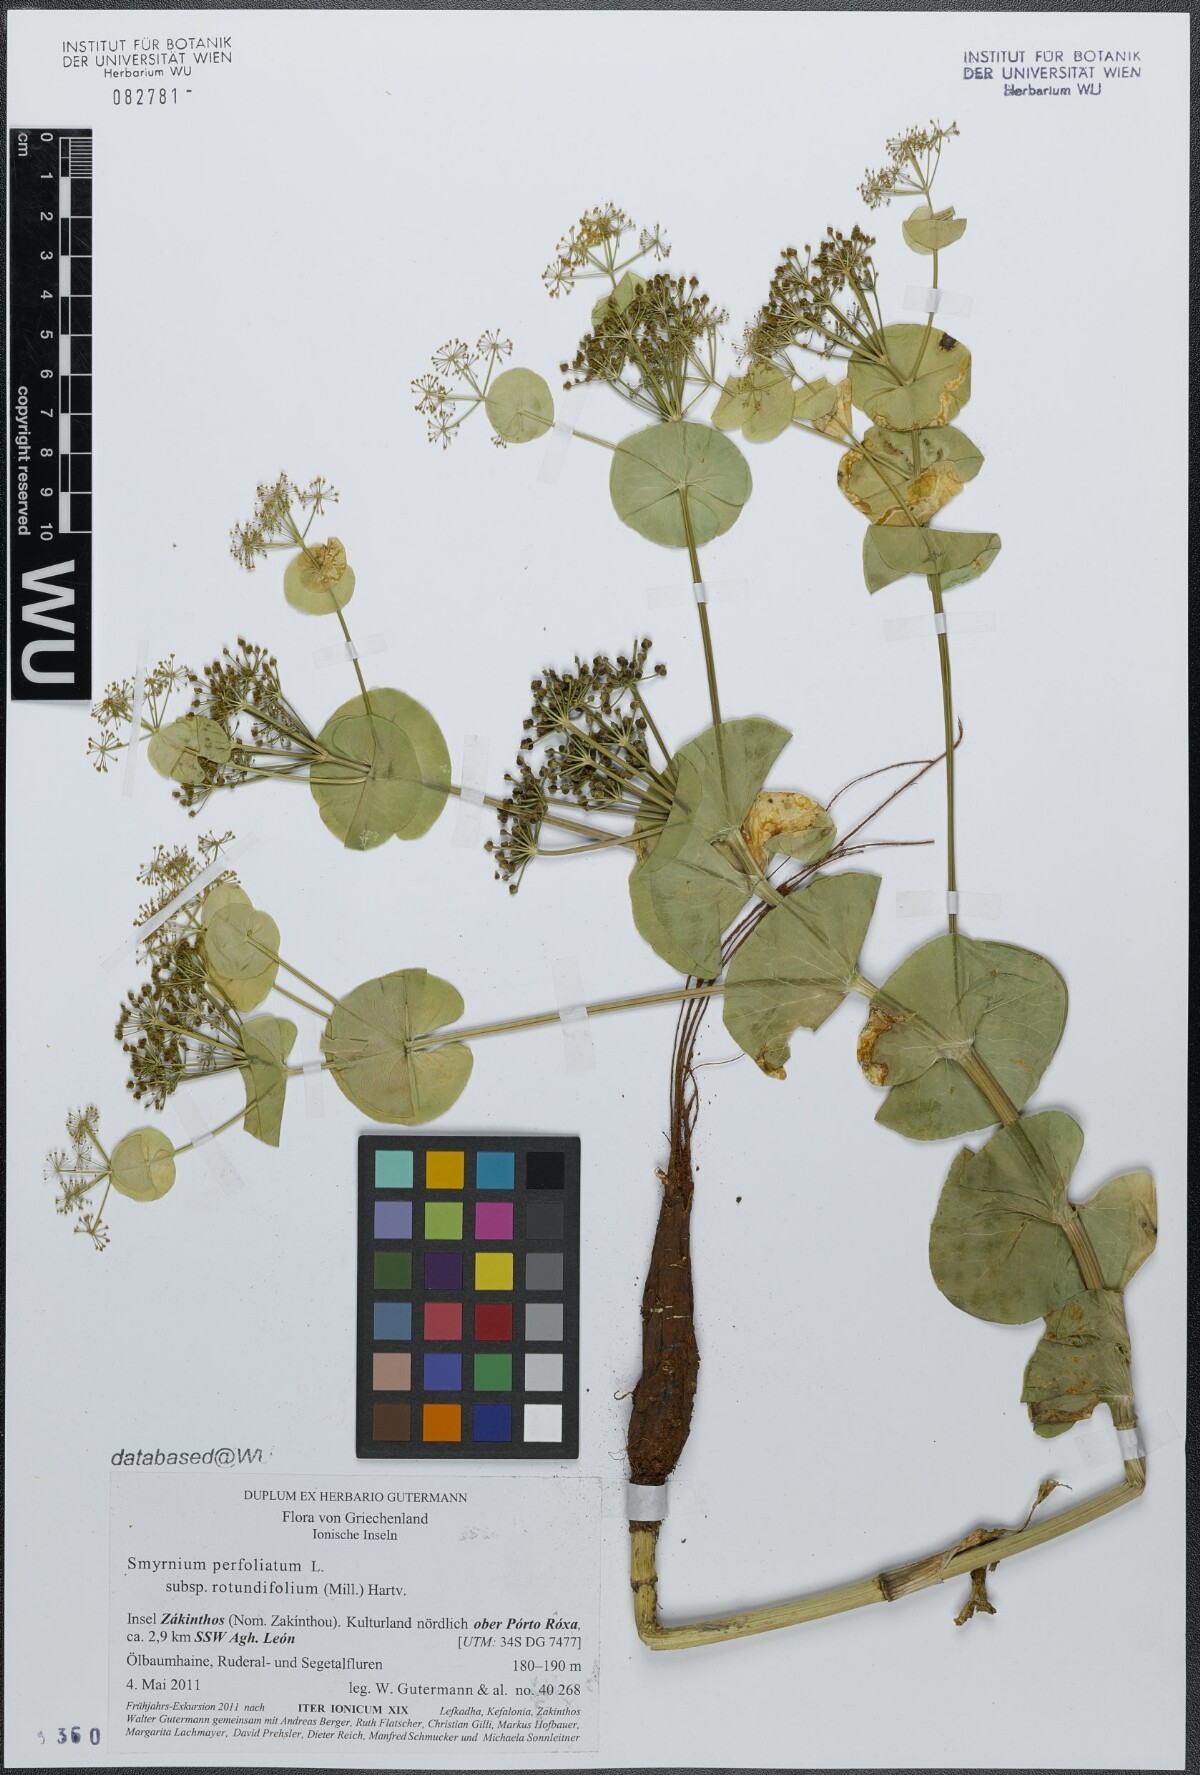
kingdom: Plantae
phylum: Tracheophyta
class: Magnoliopsida
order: Apiales
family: Apiaceae
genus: Smyrnium
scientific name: Smyrnium perfoliatum
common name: Perfoliate alexanders
